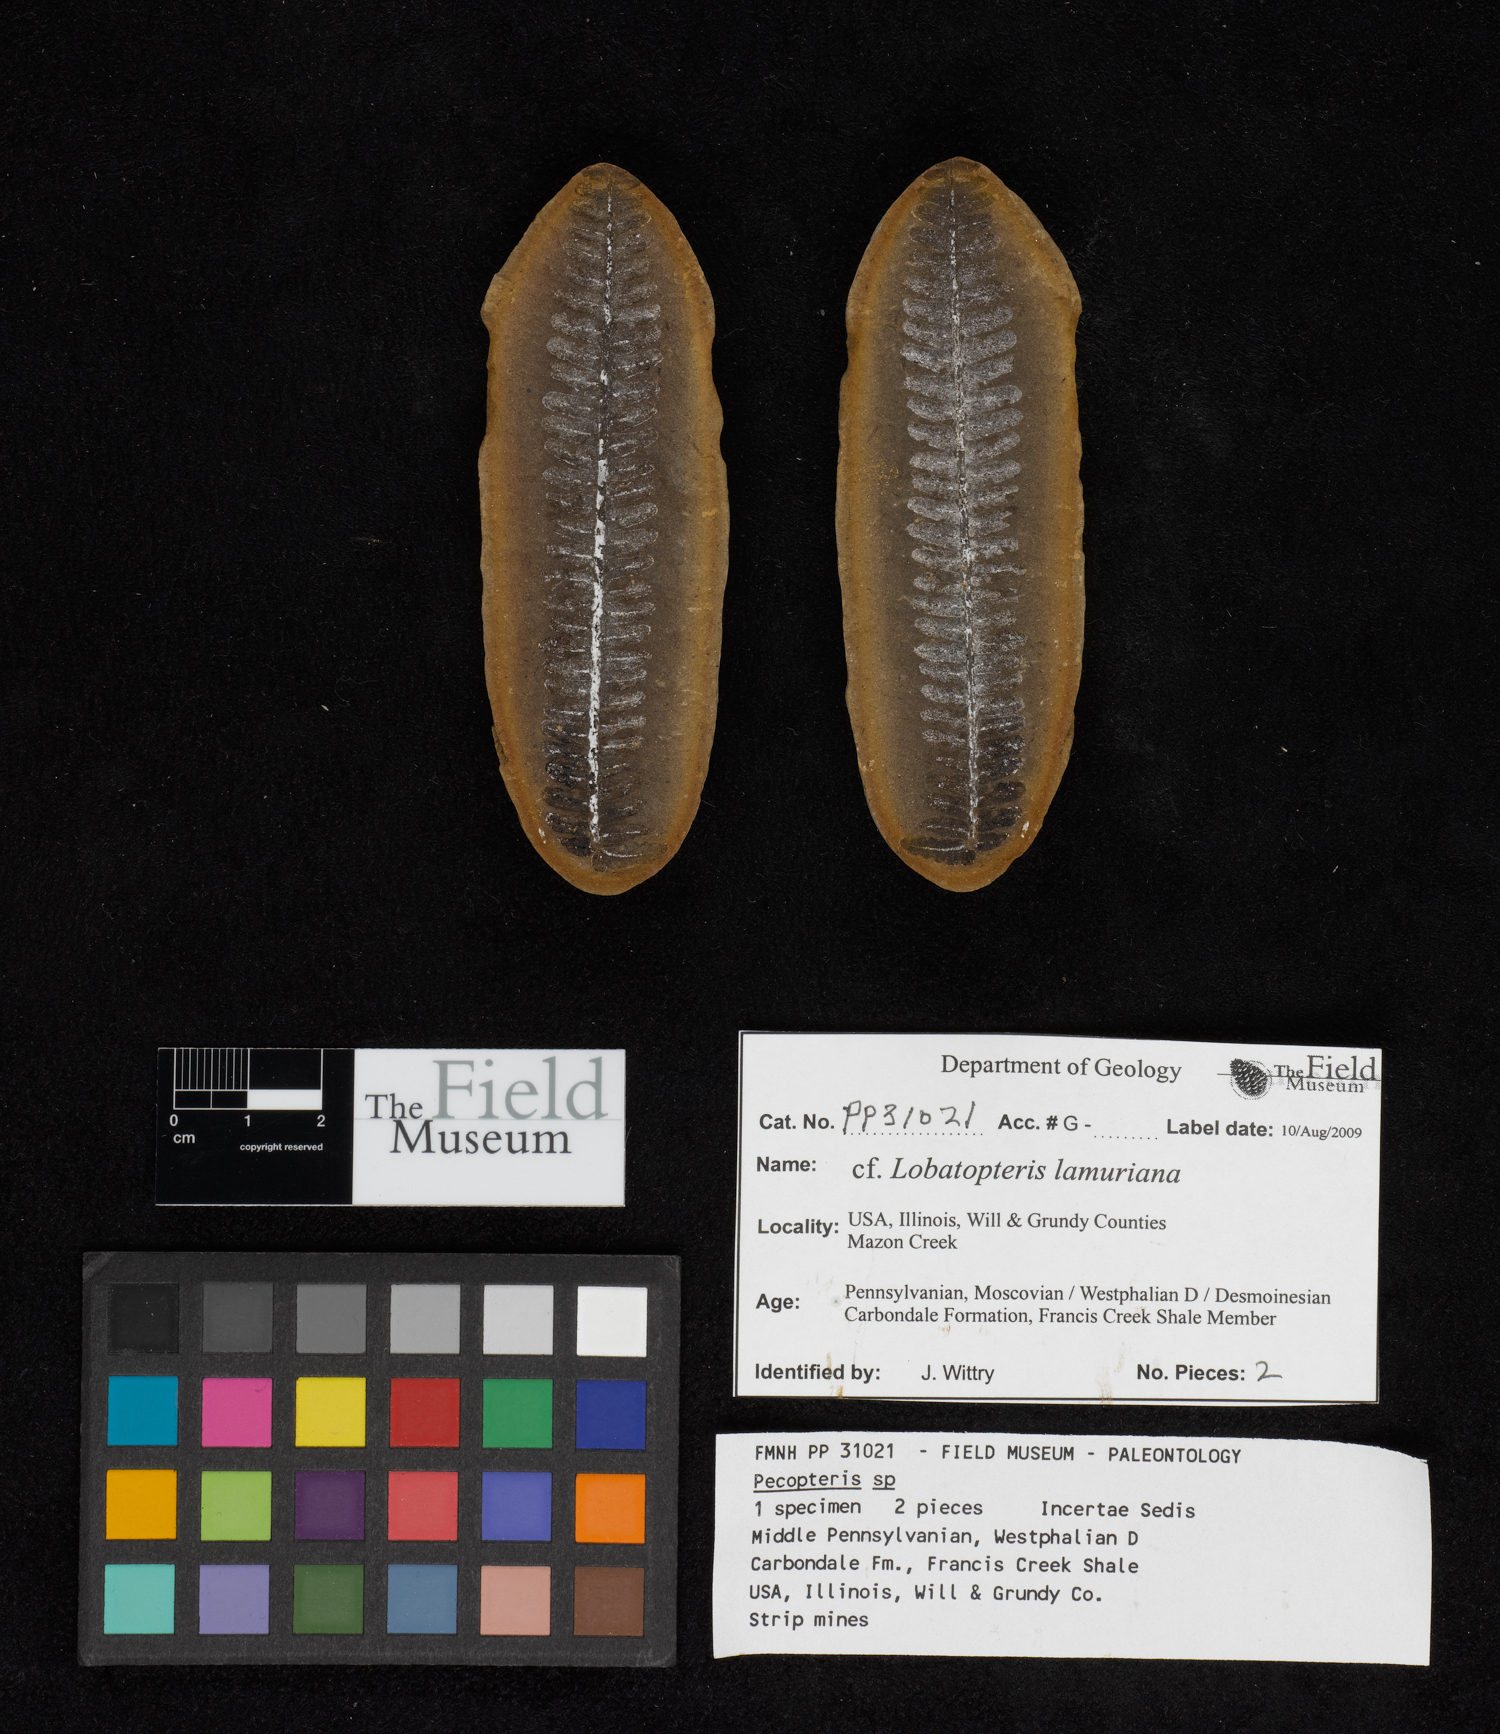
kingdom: Plantae
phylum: Tracheophyta
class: Polypodiopsida
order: Marattiales
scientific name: Marattiales
